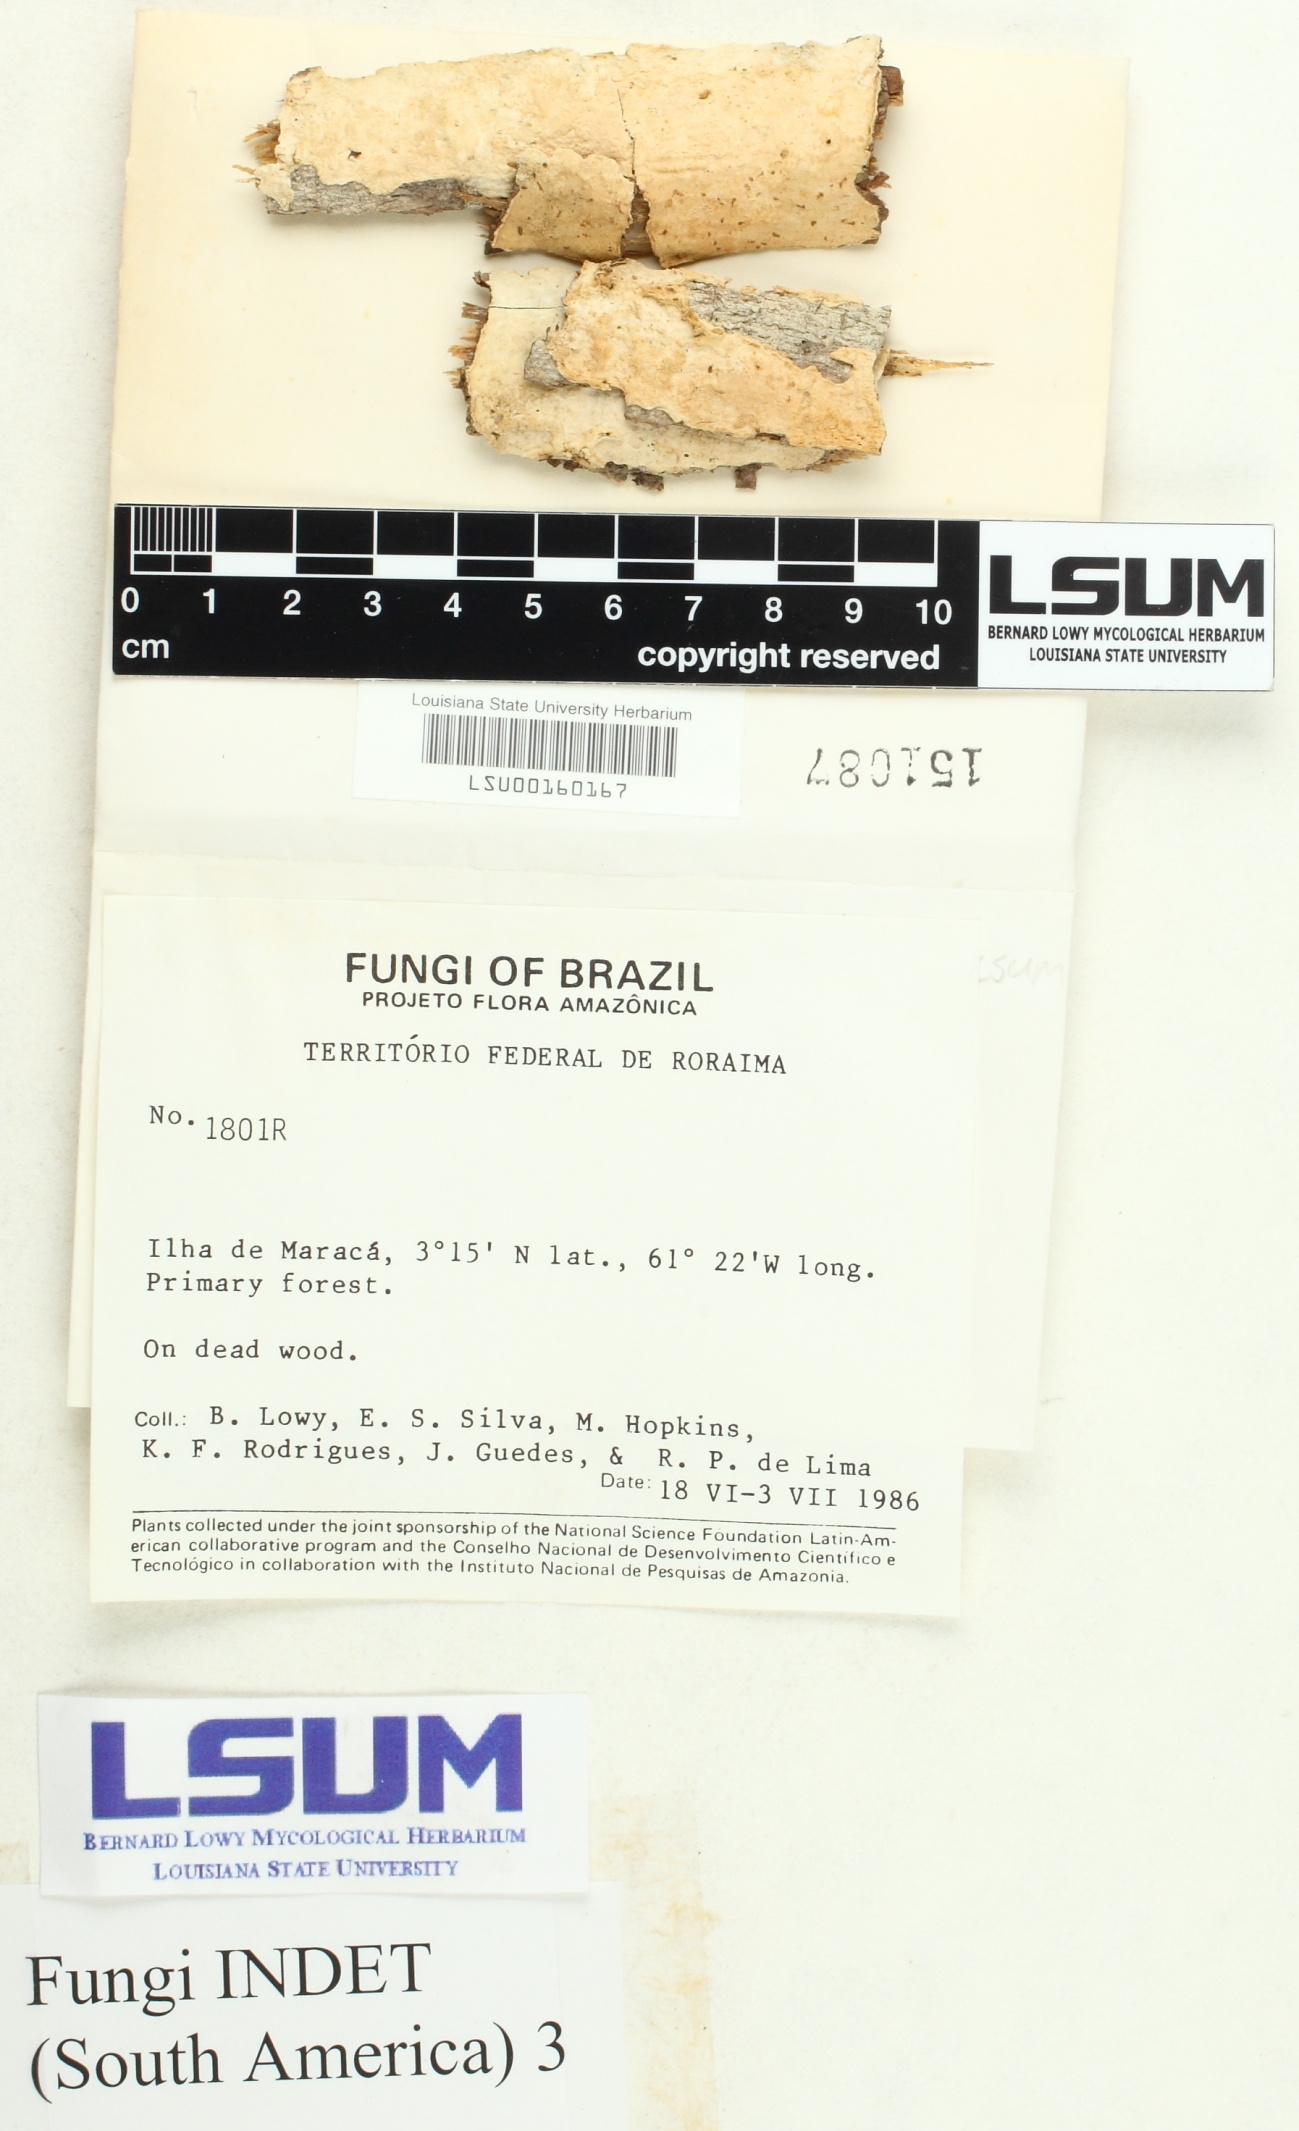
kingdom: Fungi
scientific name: Fungi
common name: Fungi
